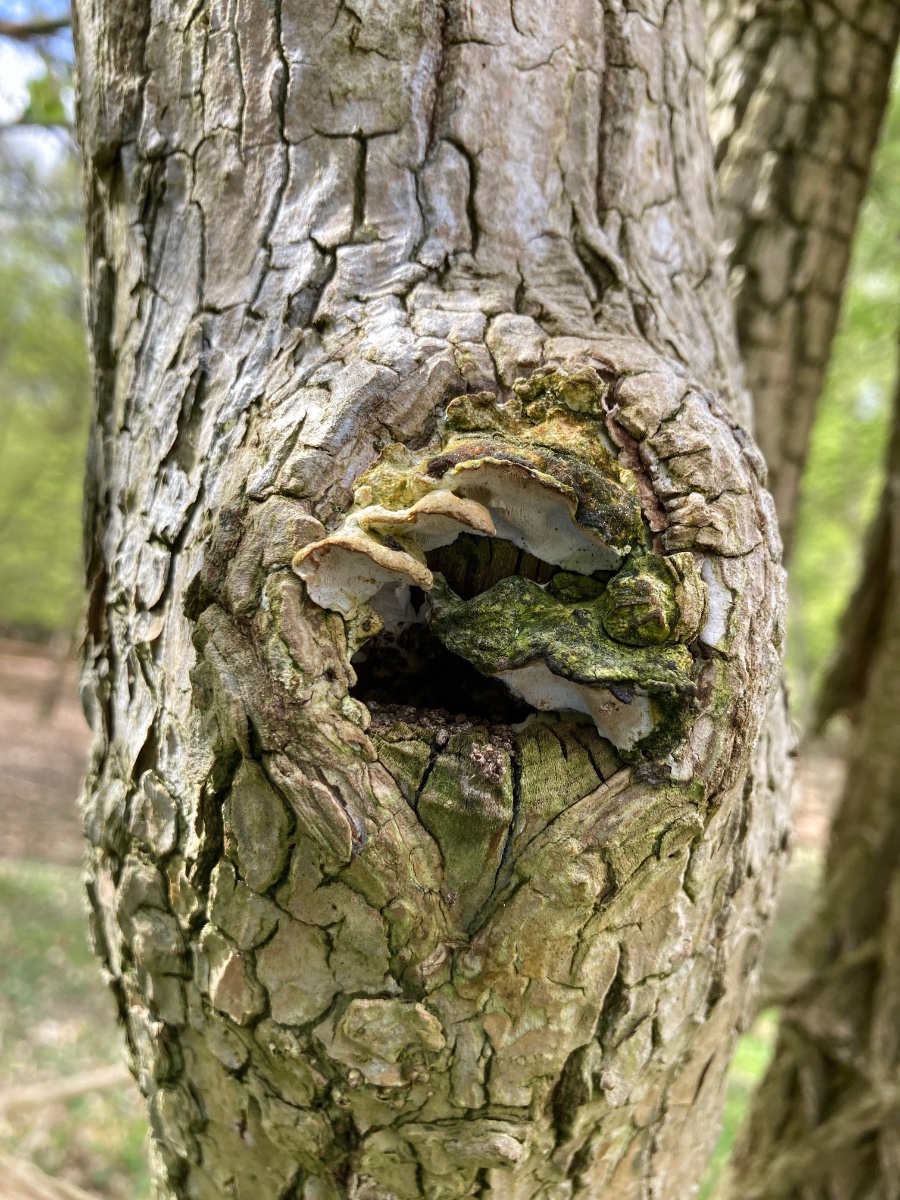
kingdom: Fungi
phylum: Basidiomycota
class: Agaricomycetes
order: Hymenochaetales
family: Oxyporaceae
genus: Oxyporus
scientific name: Oxyporus populinus
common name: sammenvokset trylleporesvamp
